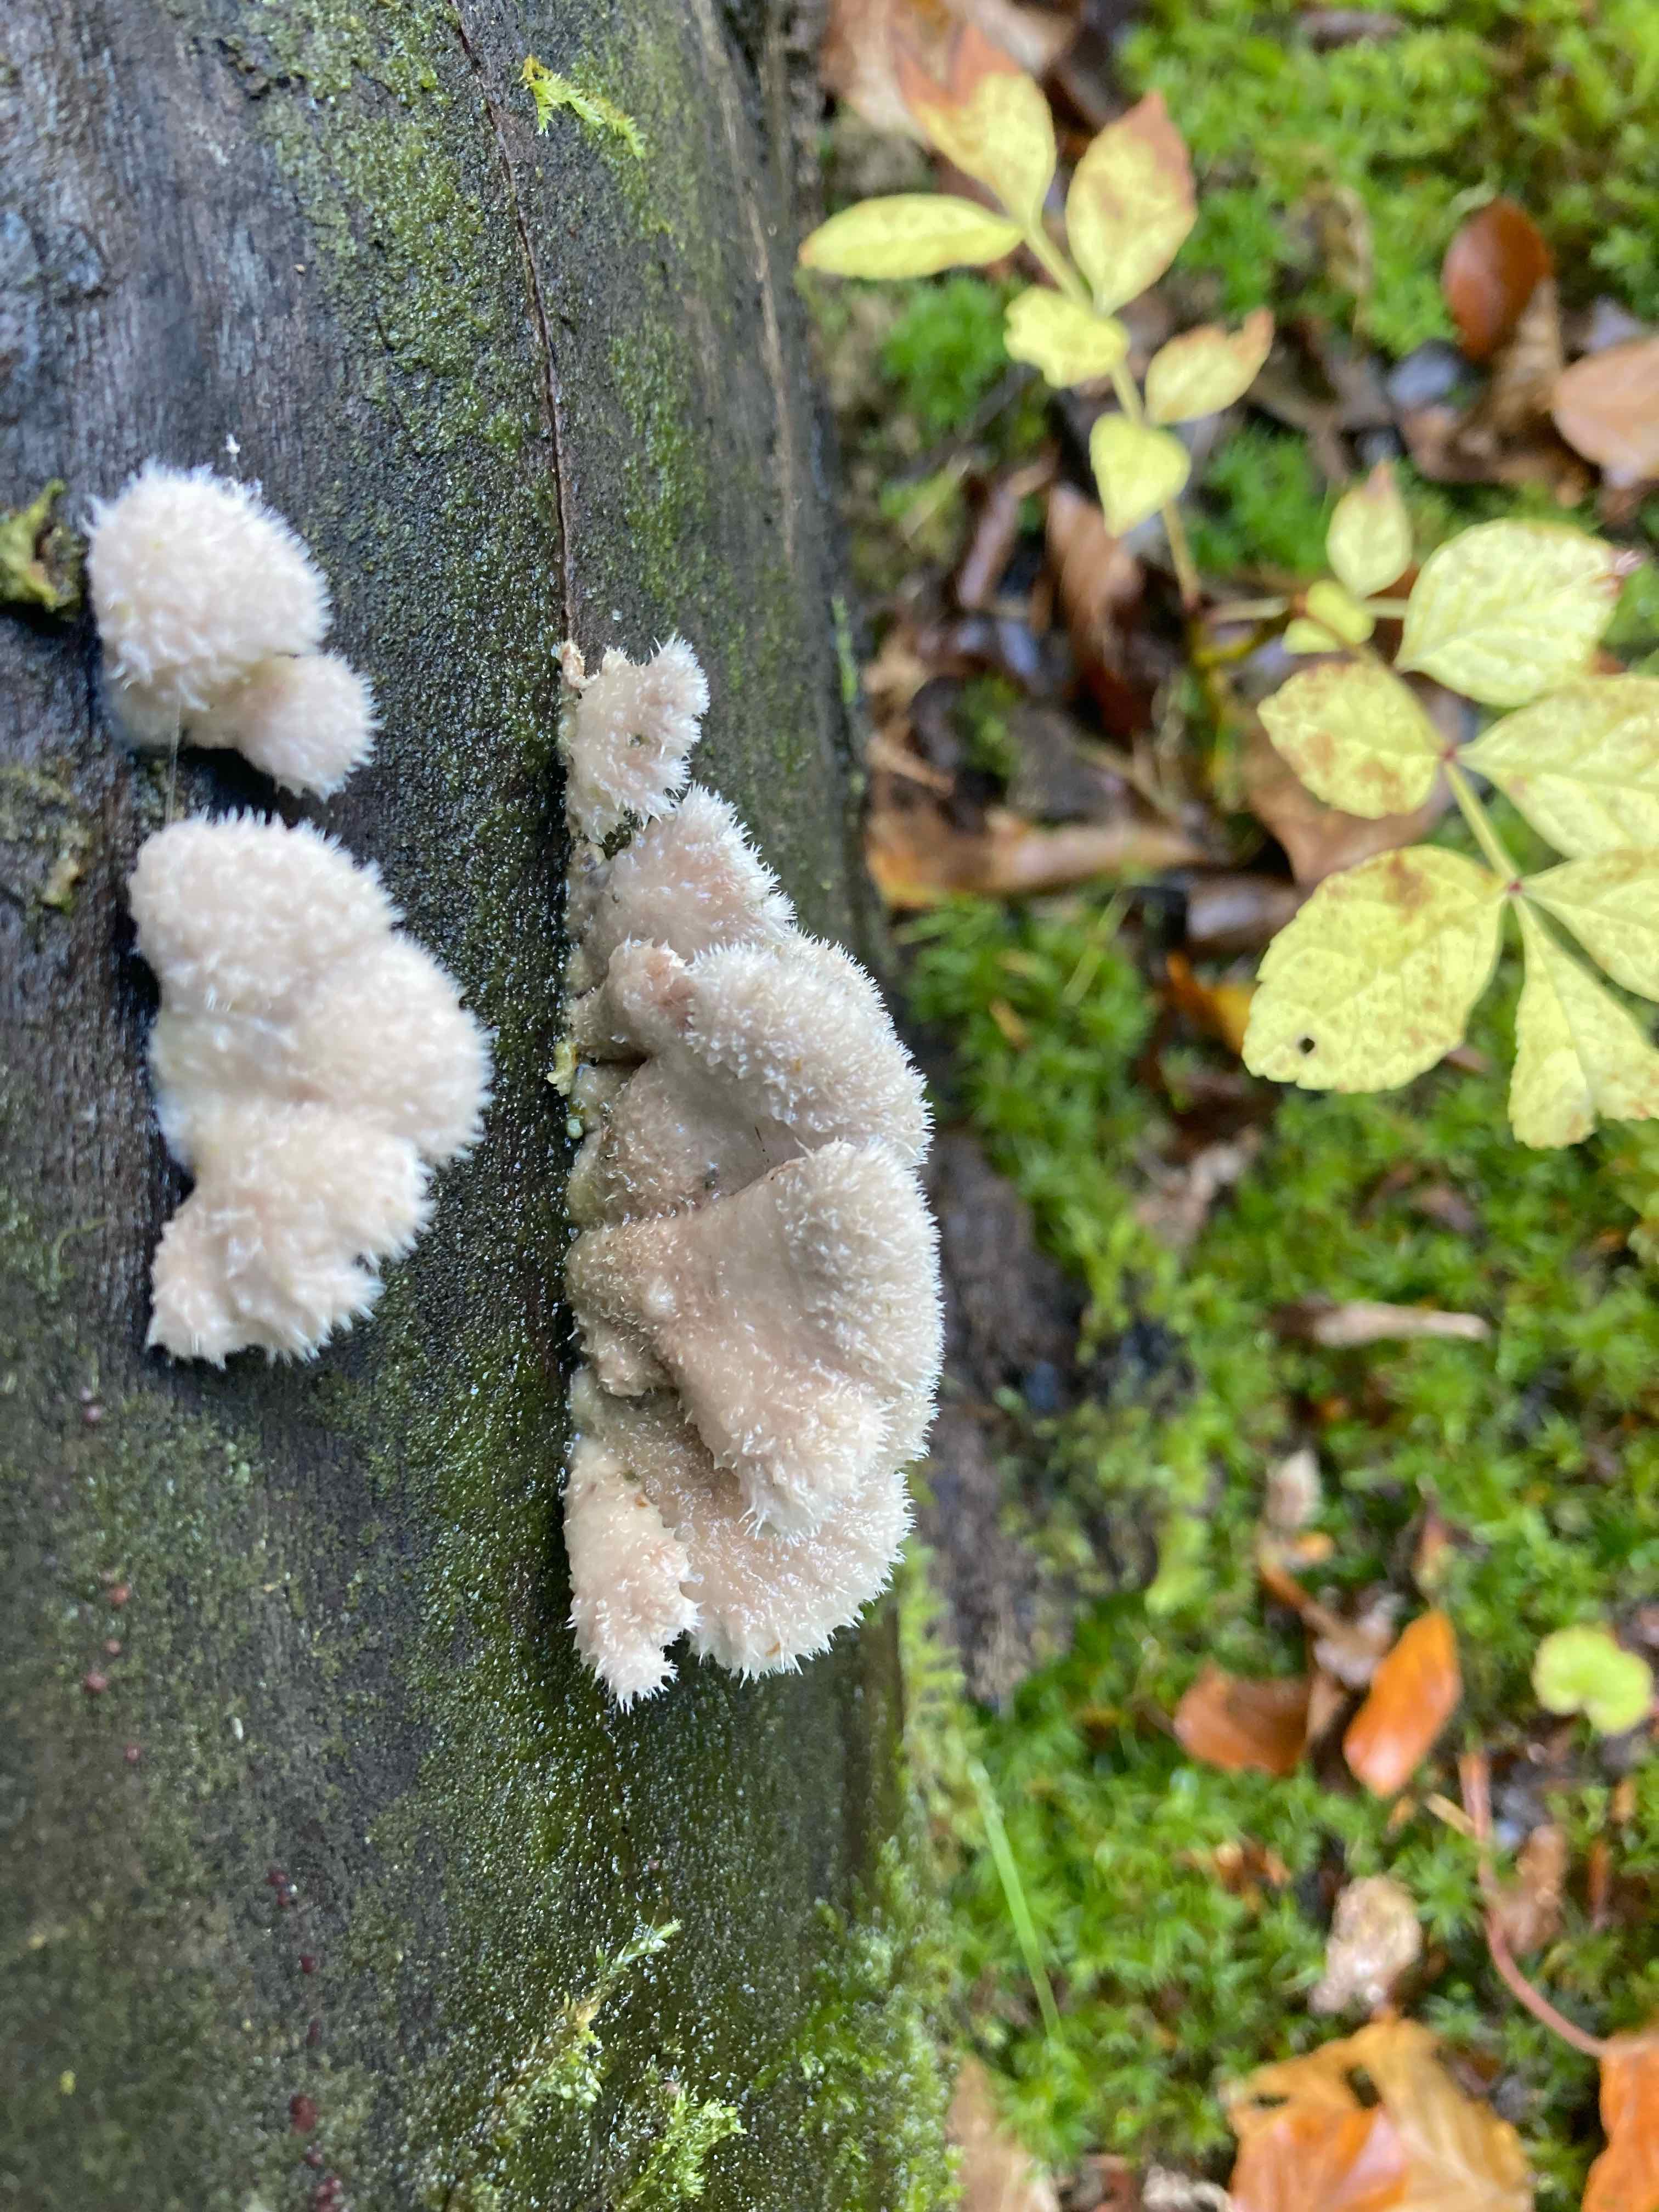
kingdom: Fungi
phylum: Basidiomycota
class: Agaricomycetes
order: Agaricales
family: Schizophyllaceae
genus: Schizophyllum
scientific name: Schizophyllum commune
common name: kløvblad
